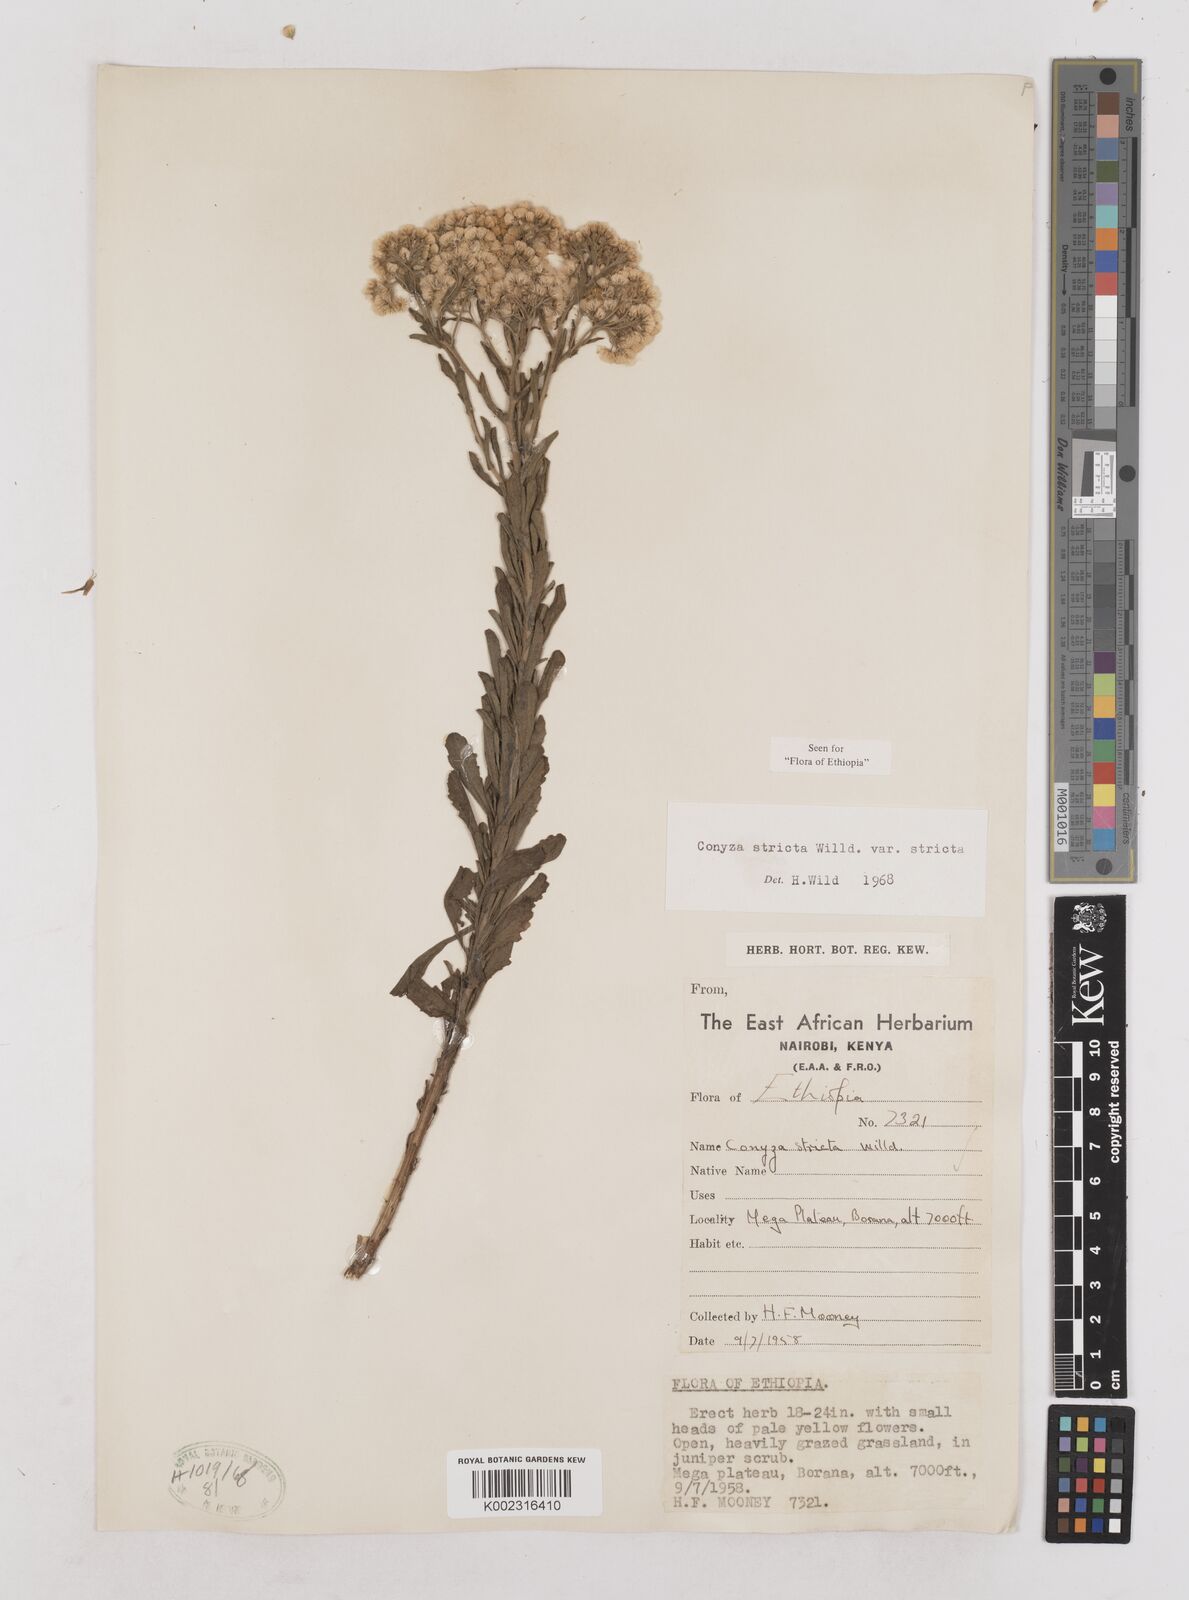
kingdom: Plantae
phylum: Tracheophyta
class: Magnoliopsida
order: Asterales
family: Asteraceae
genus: Nidorella
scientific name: Nidorella triloba
